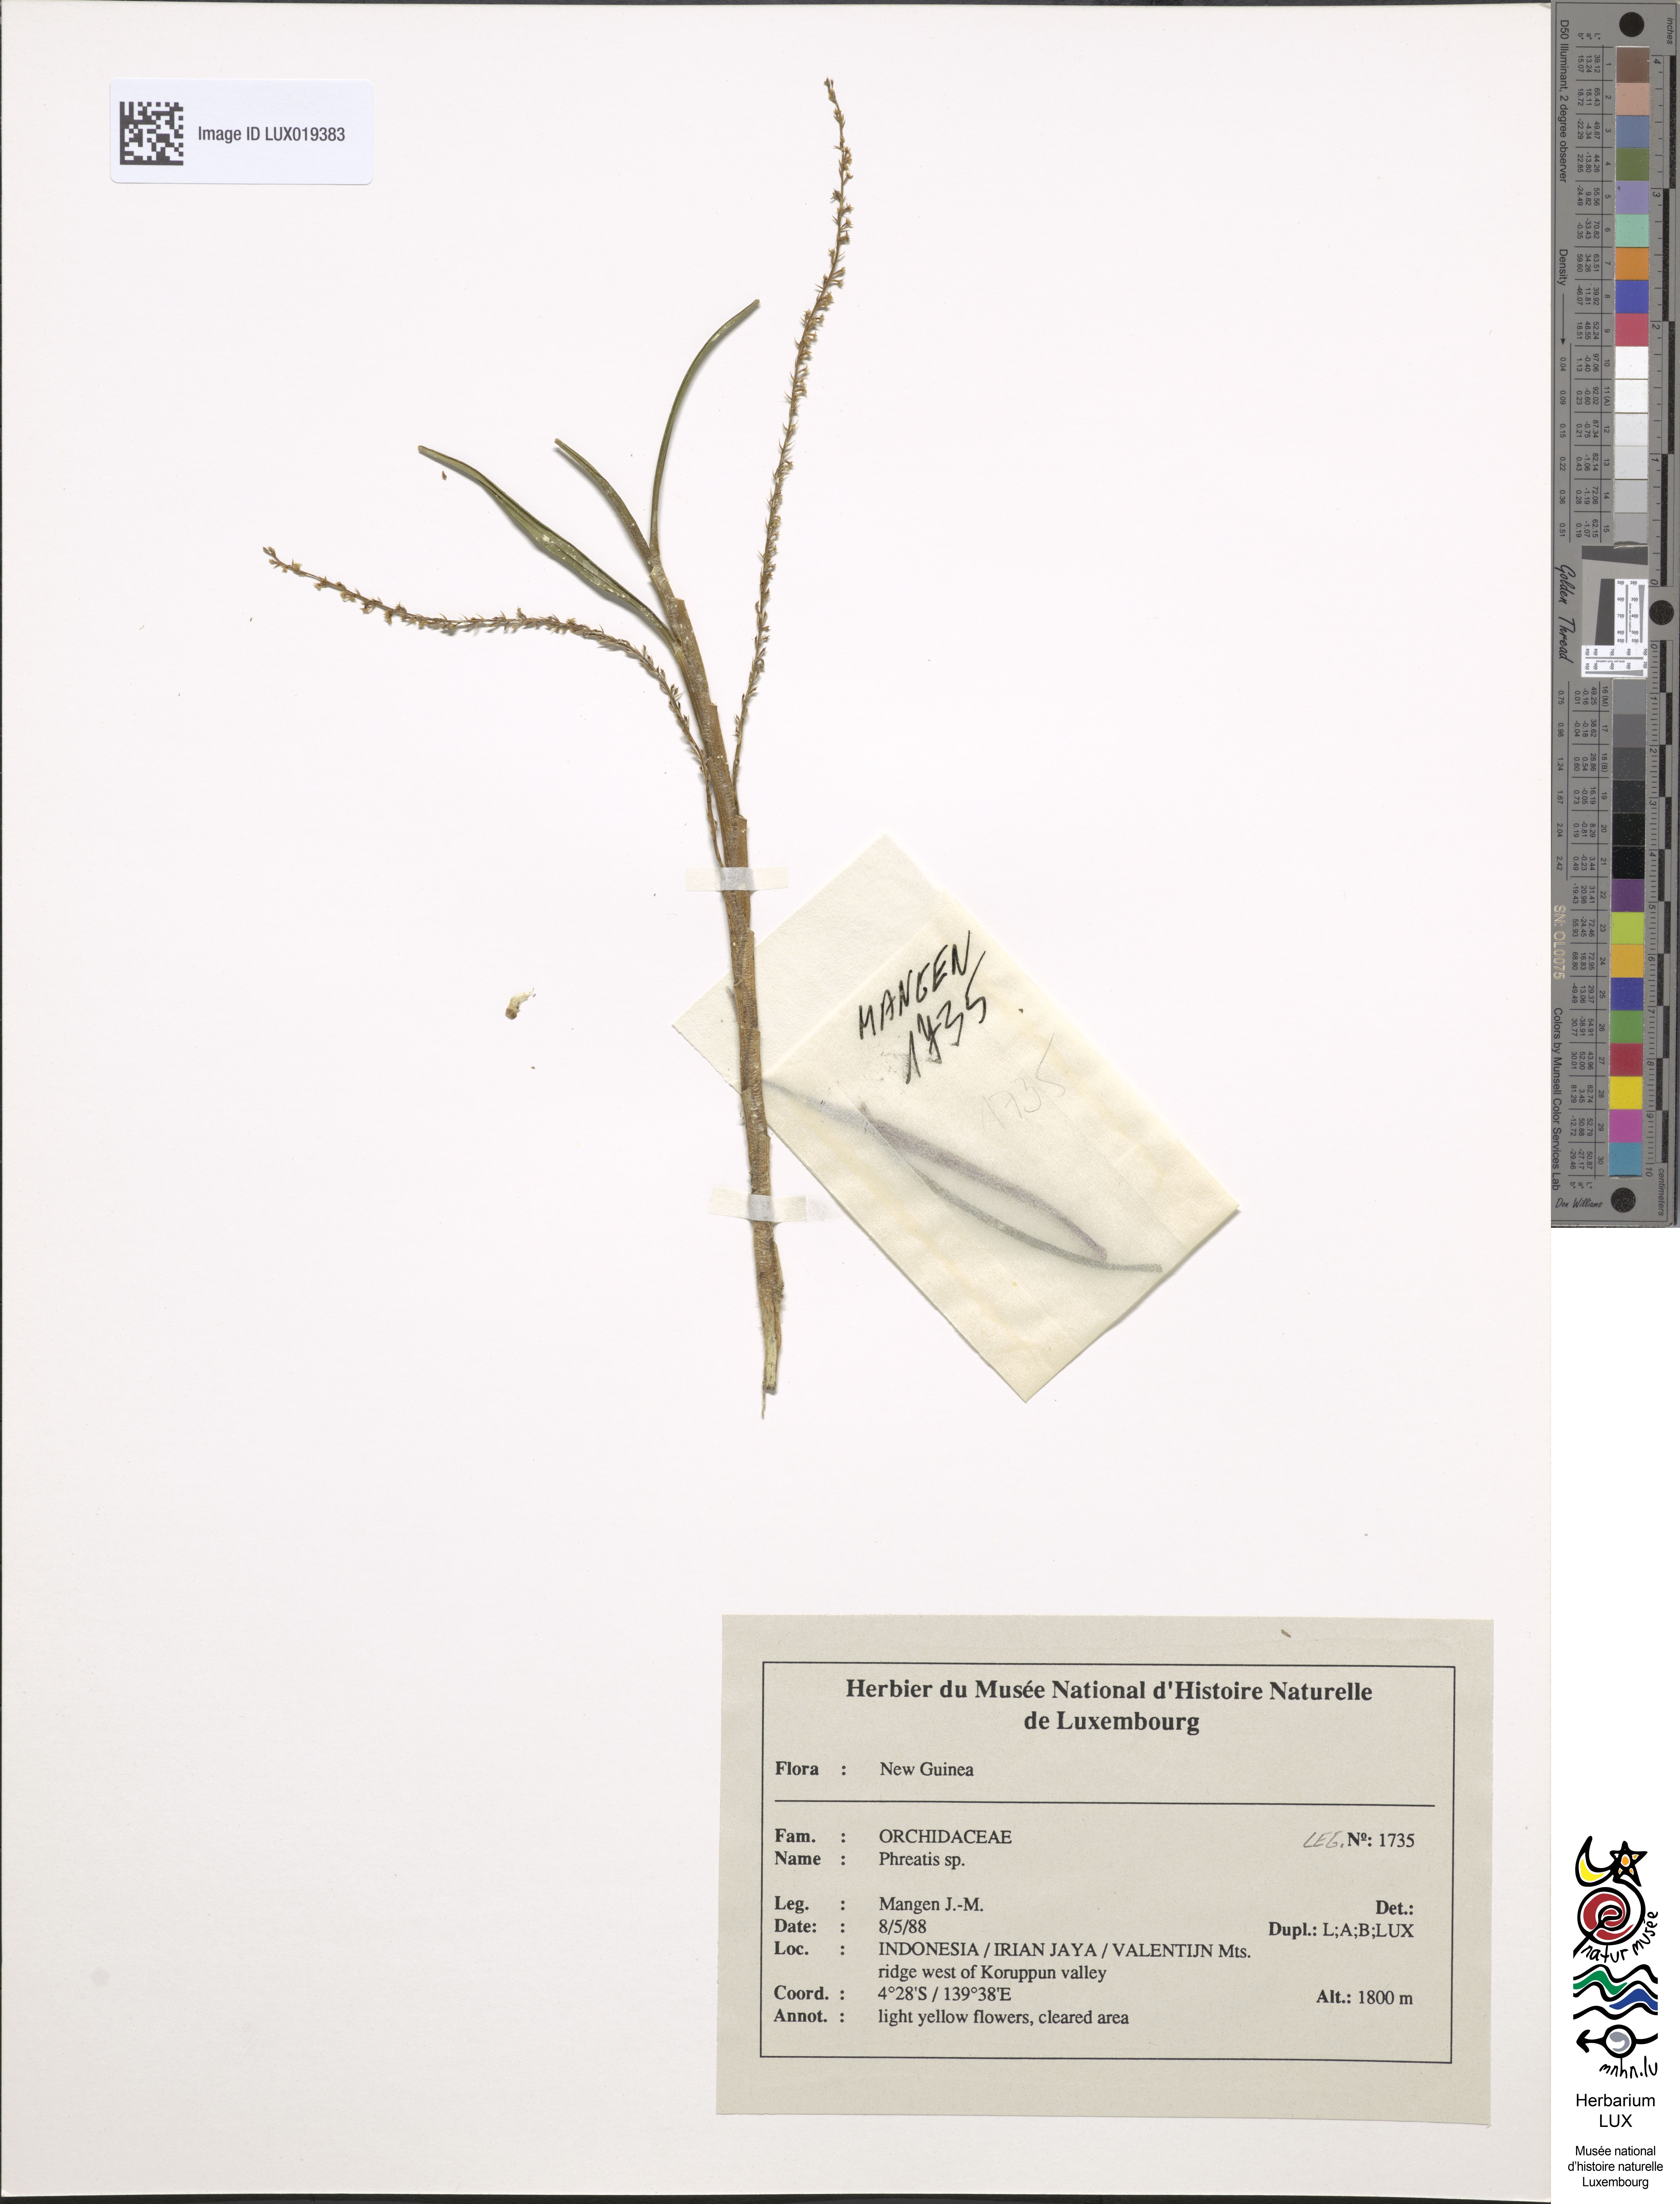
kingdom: Plantae
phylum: Tracheophyta
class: Liliopsida
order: Asparagales
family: Orchidaceae
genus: Phreatia
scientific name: Phreatia
